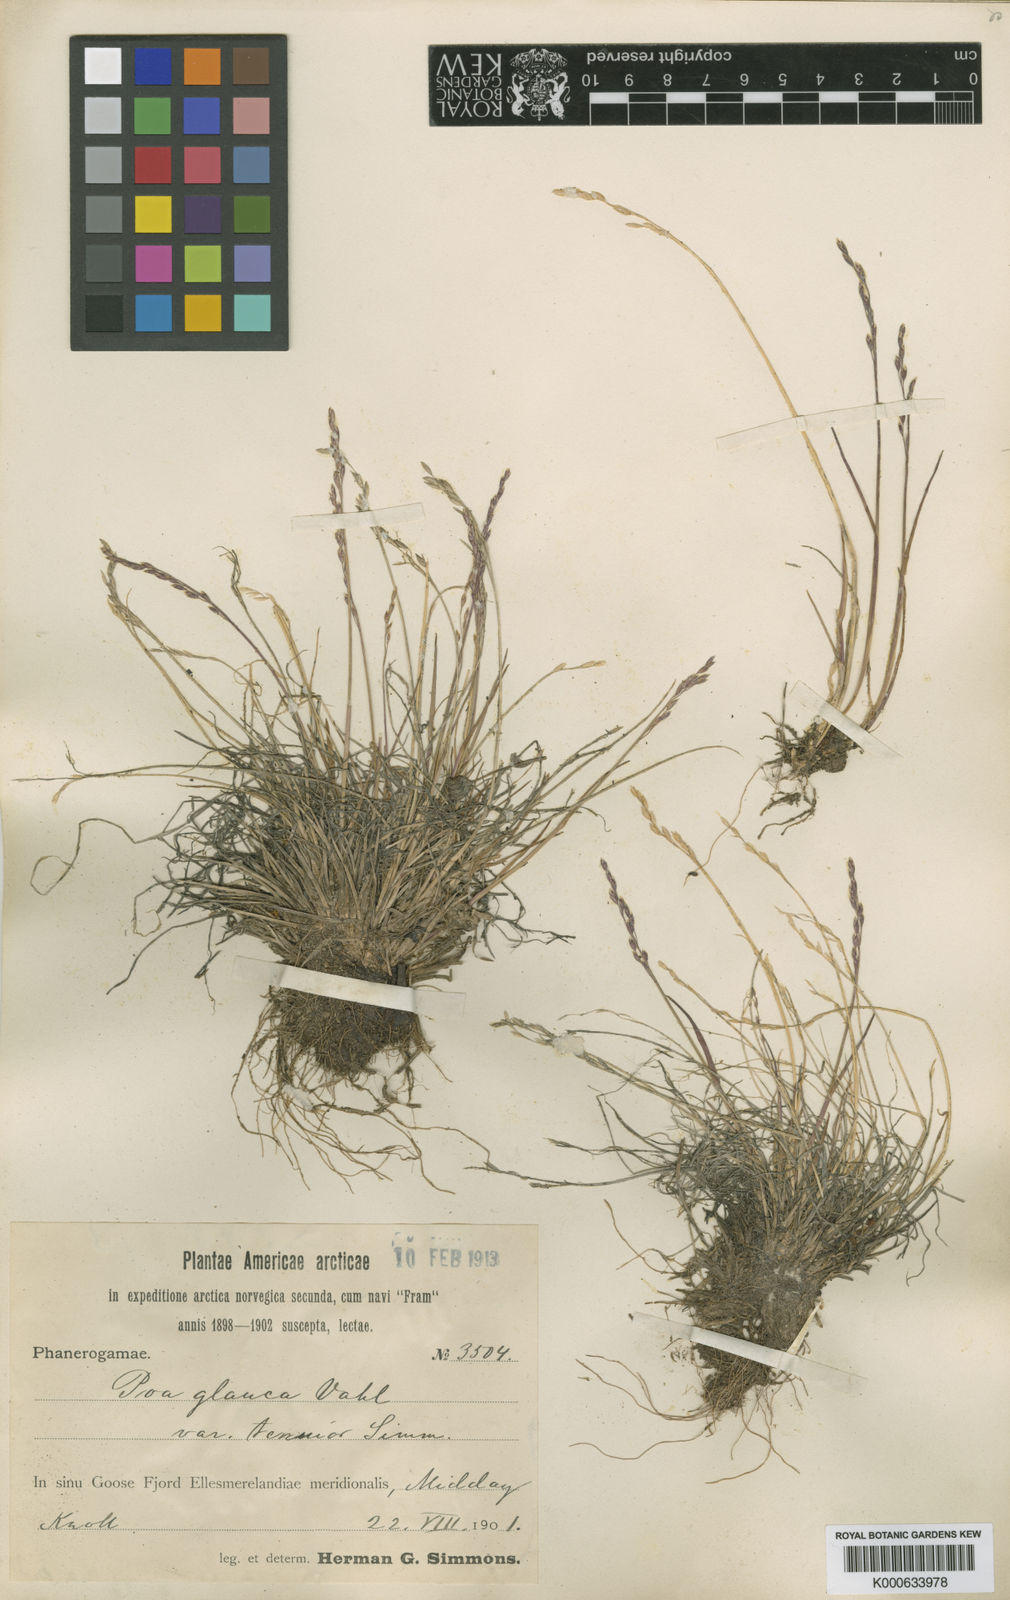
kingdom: Plantae
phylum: Tracheophyta
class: Liliopsida
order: Poales
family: Poaceae
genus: Poa
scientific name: Poa glauca
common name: Glaucous bluegrass
